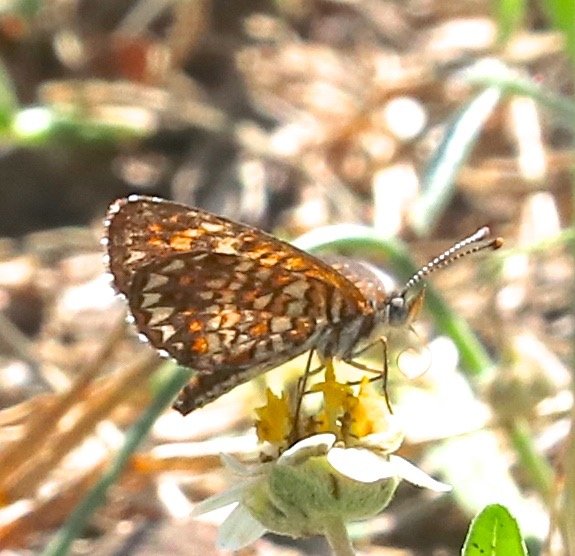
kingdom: Animalia
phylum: Arthropoda
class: Insecta
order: Lepidoptera
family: Nymphalidae
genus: Texola
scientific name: Texola elada
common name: Elada Checkerspot
